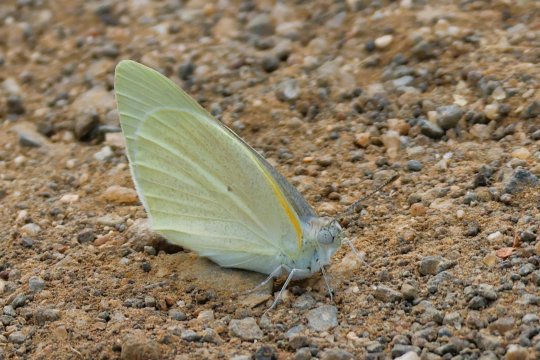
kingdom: Animalia
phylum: Arthropoda
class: Insecta
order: Lepidoptera
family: Pieridae
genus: Catopsilia
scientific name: Catopsilia florella
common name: African Migrant
